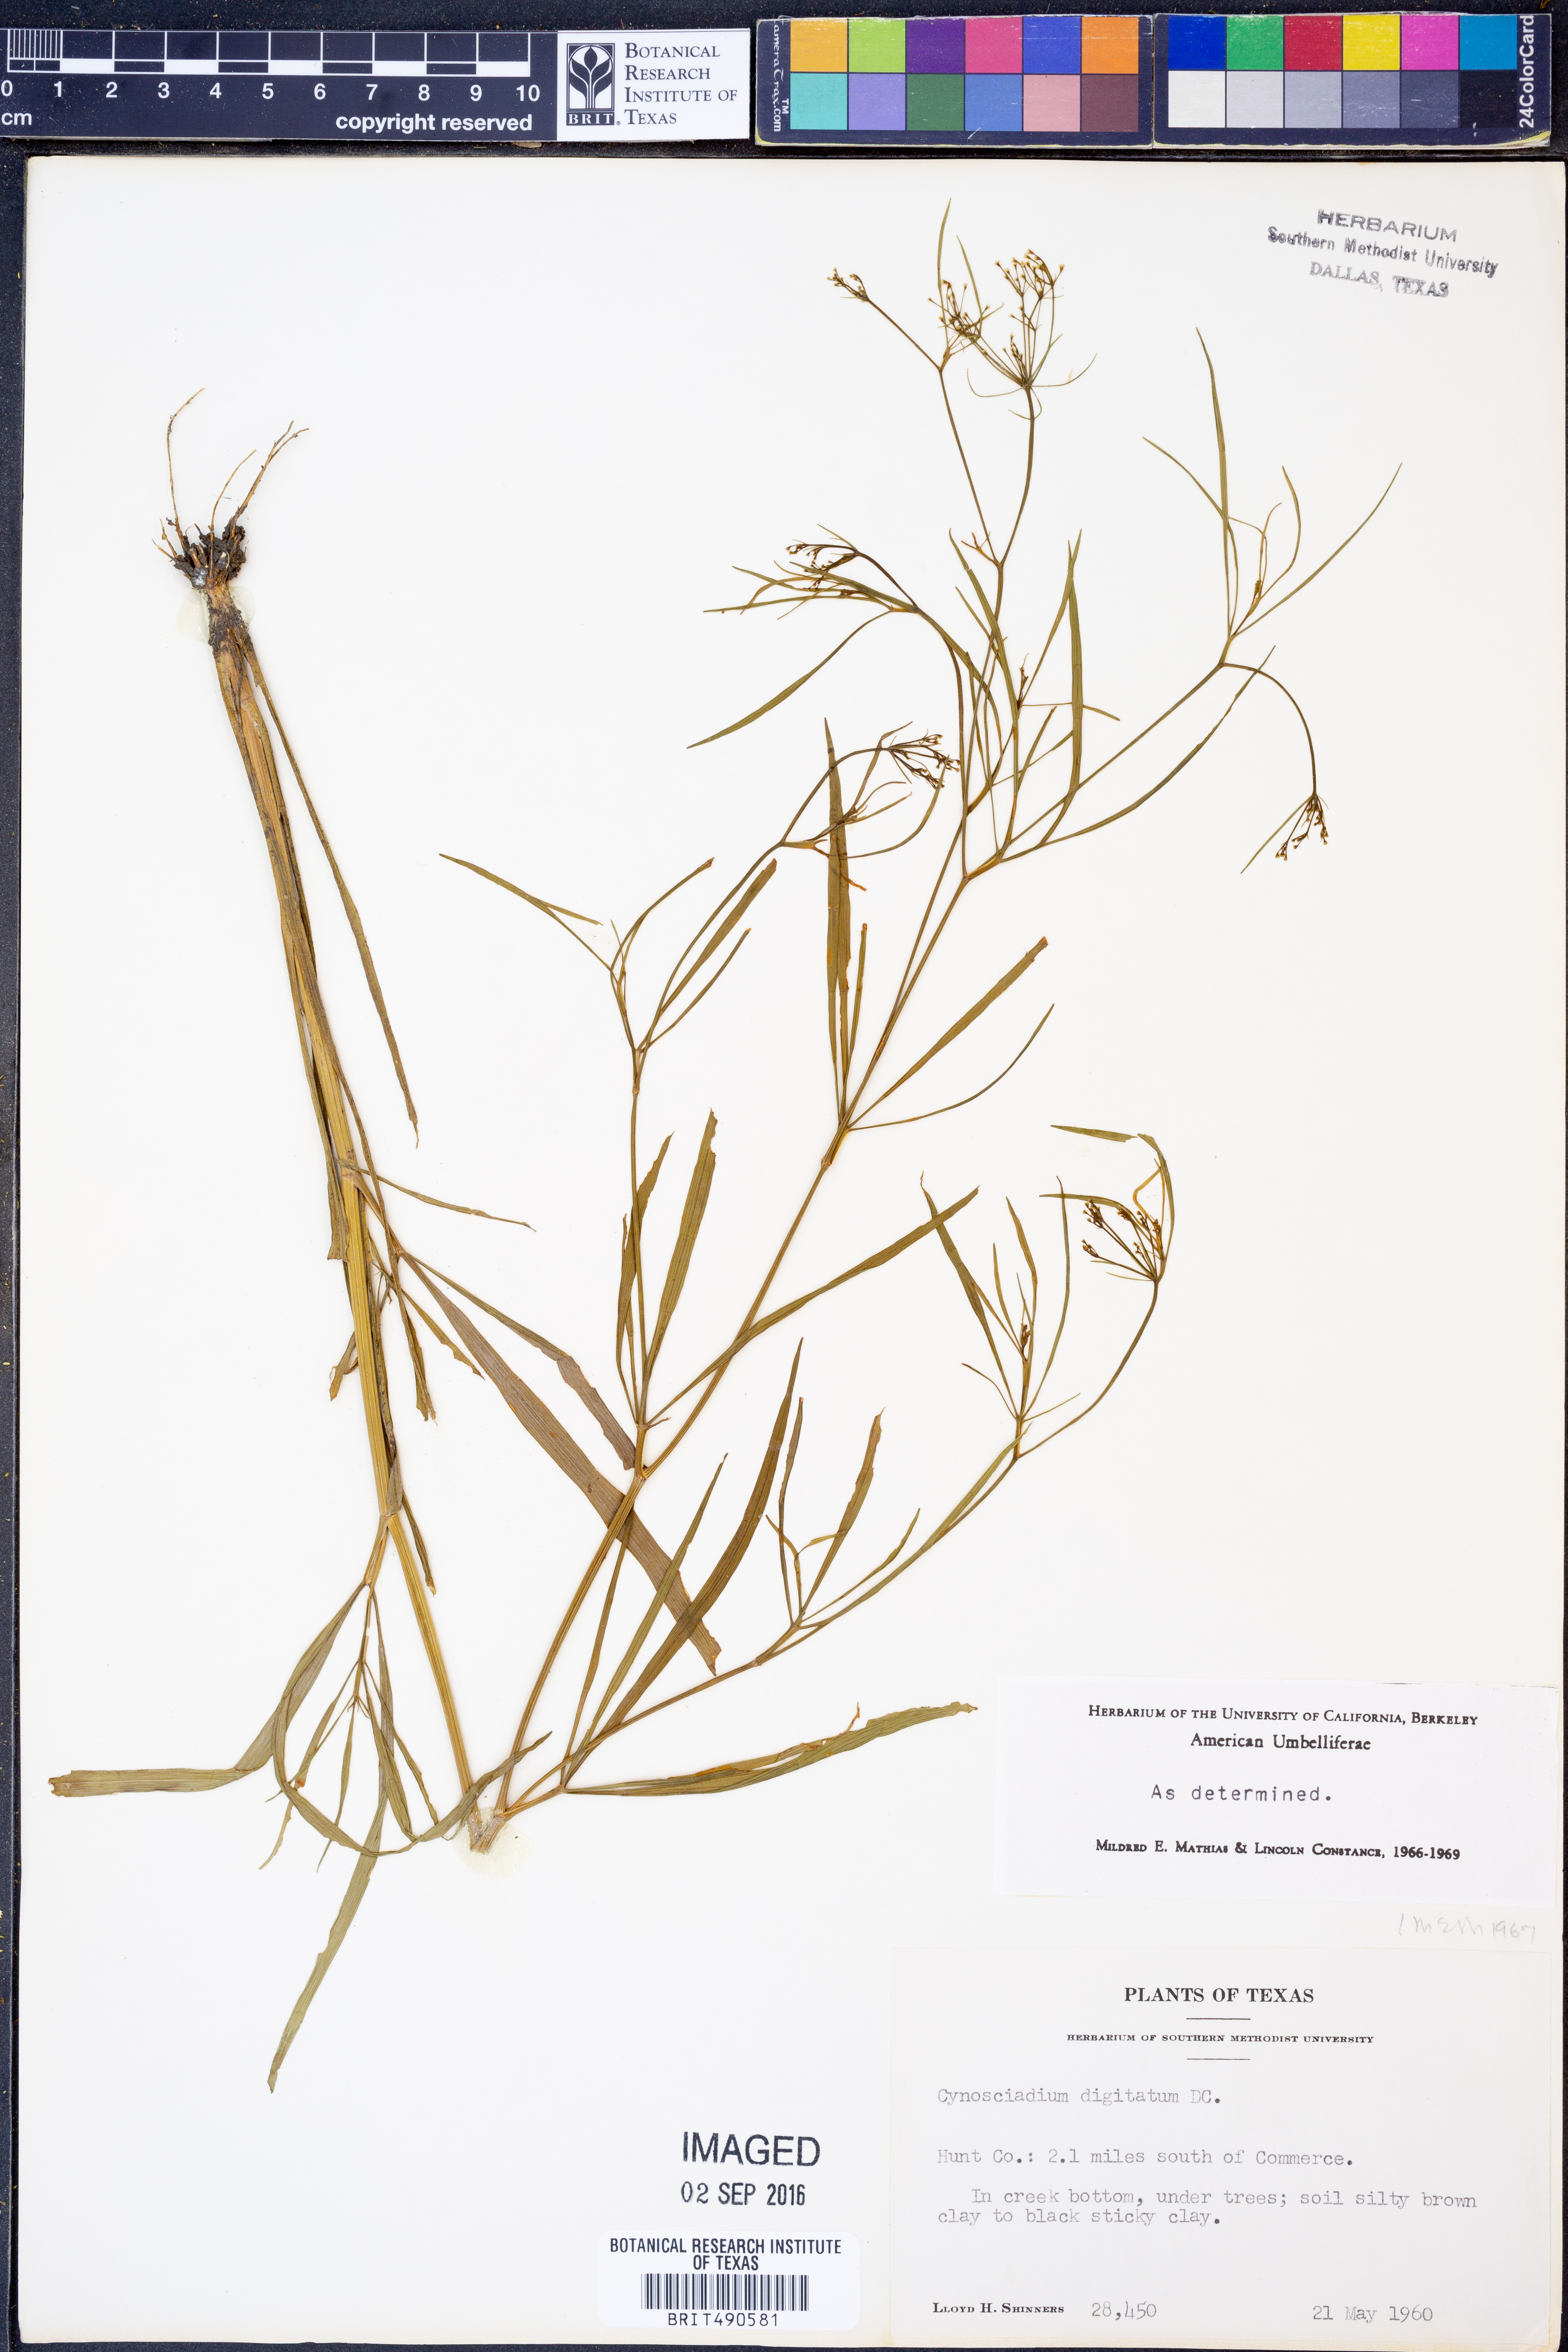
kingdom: Plantae
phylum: Tracheophyta
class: Magnoliopsida
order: Apiales
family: Apiaceae
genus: Cynosciadium
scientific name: Cynosciadium digitatum
